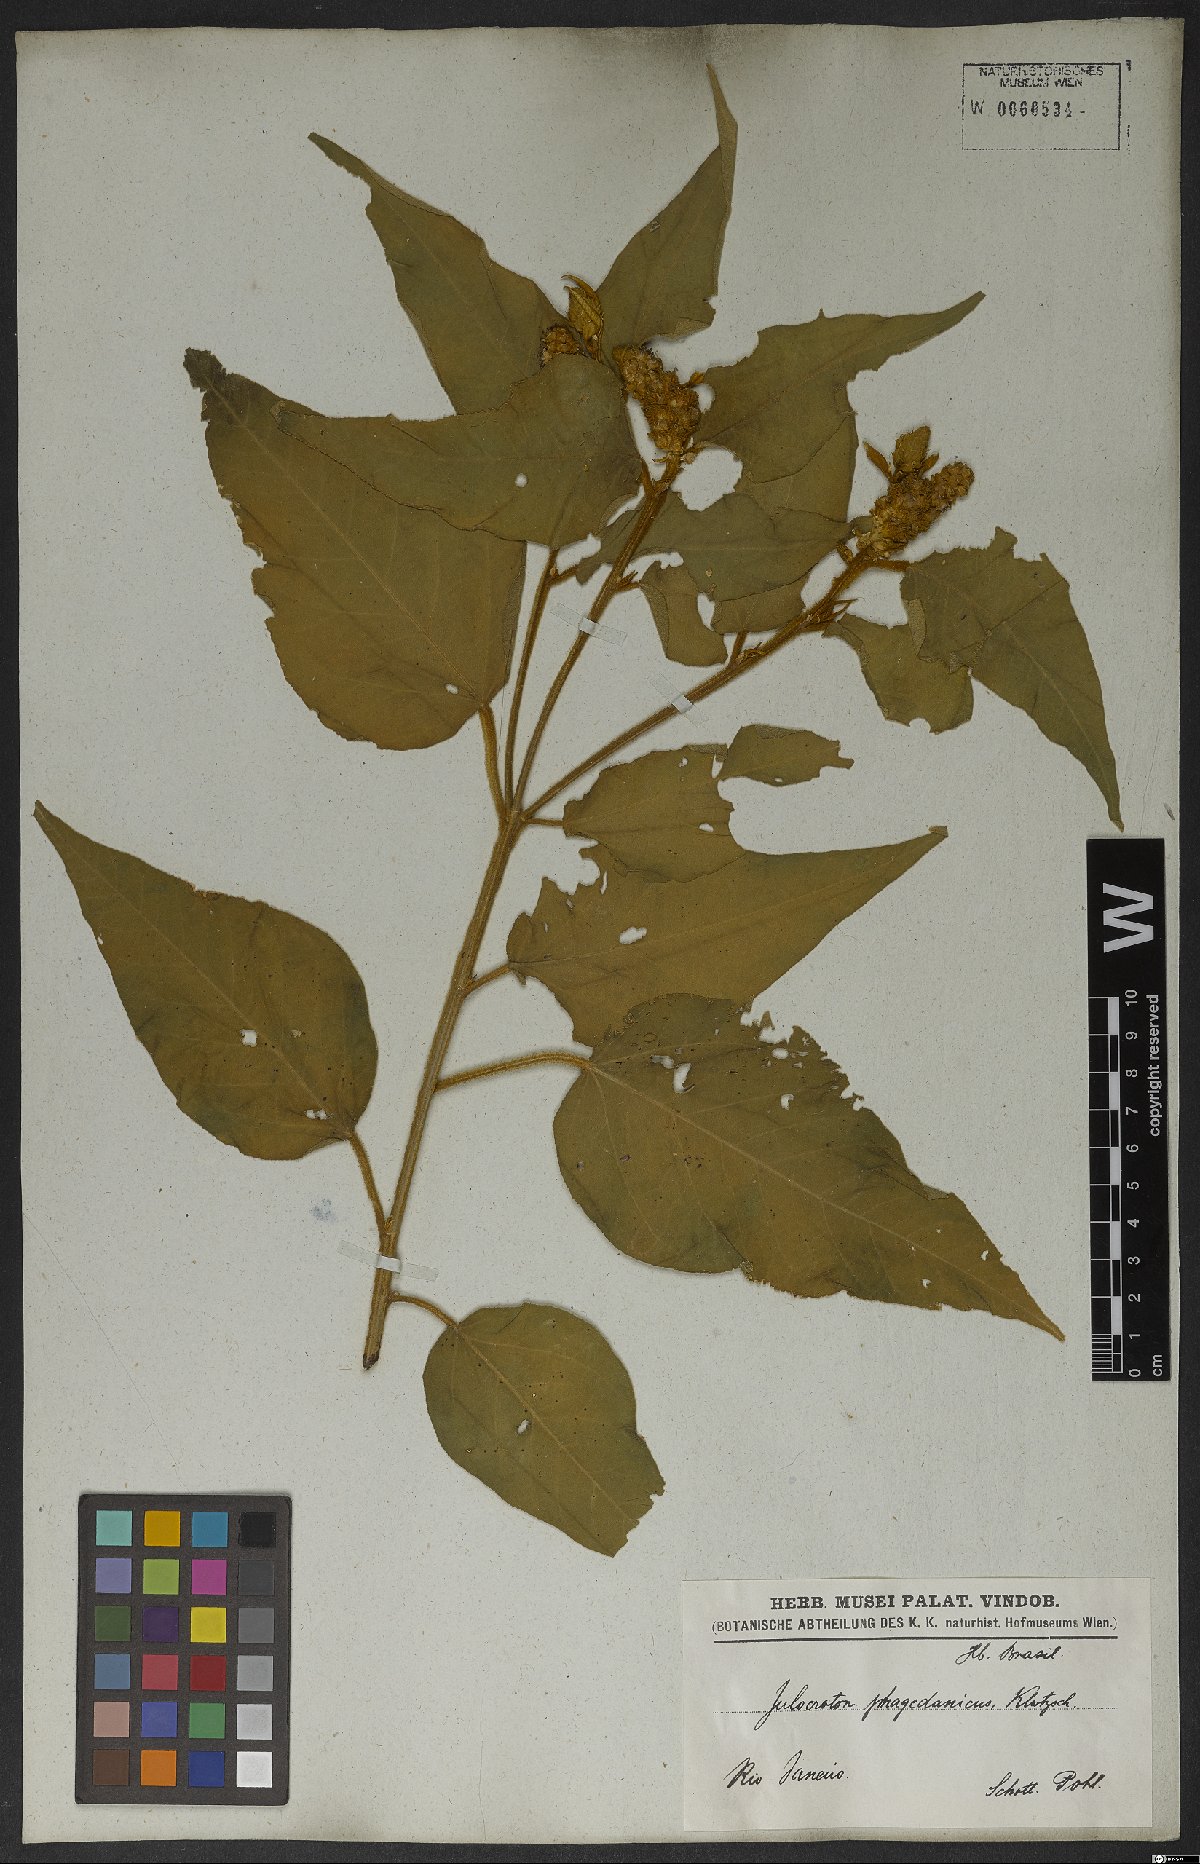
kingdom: Plantae
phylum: Tracheophyta
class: Magnoliopsida
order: Malpighiales
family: Euphorbiaceae
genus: Croton
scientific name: Croton triqueter
